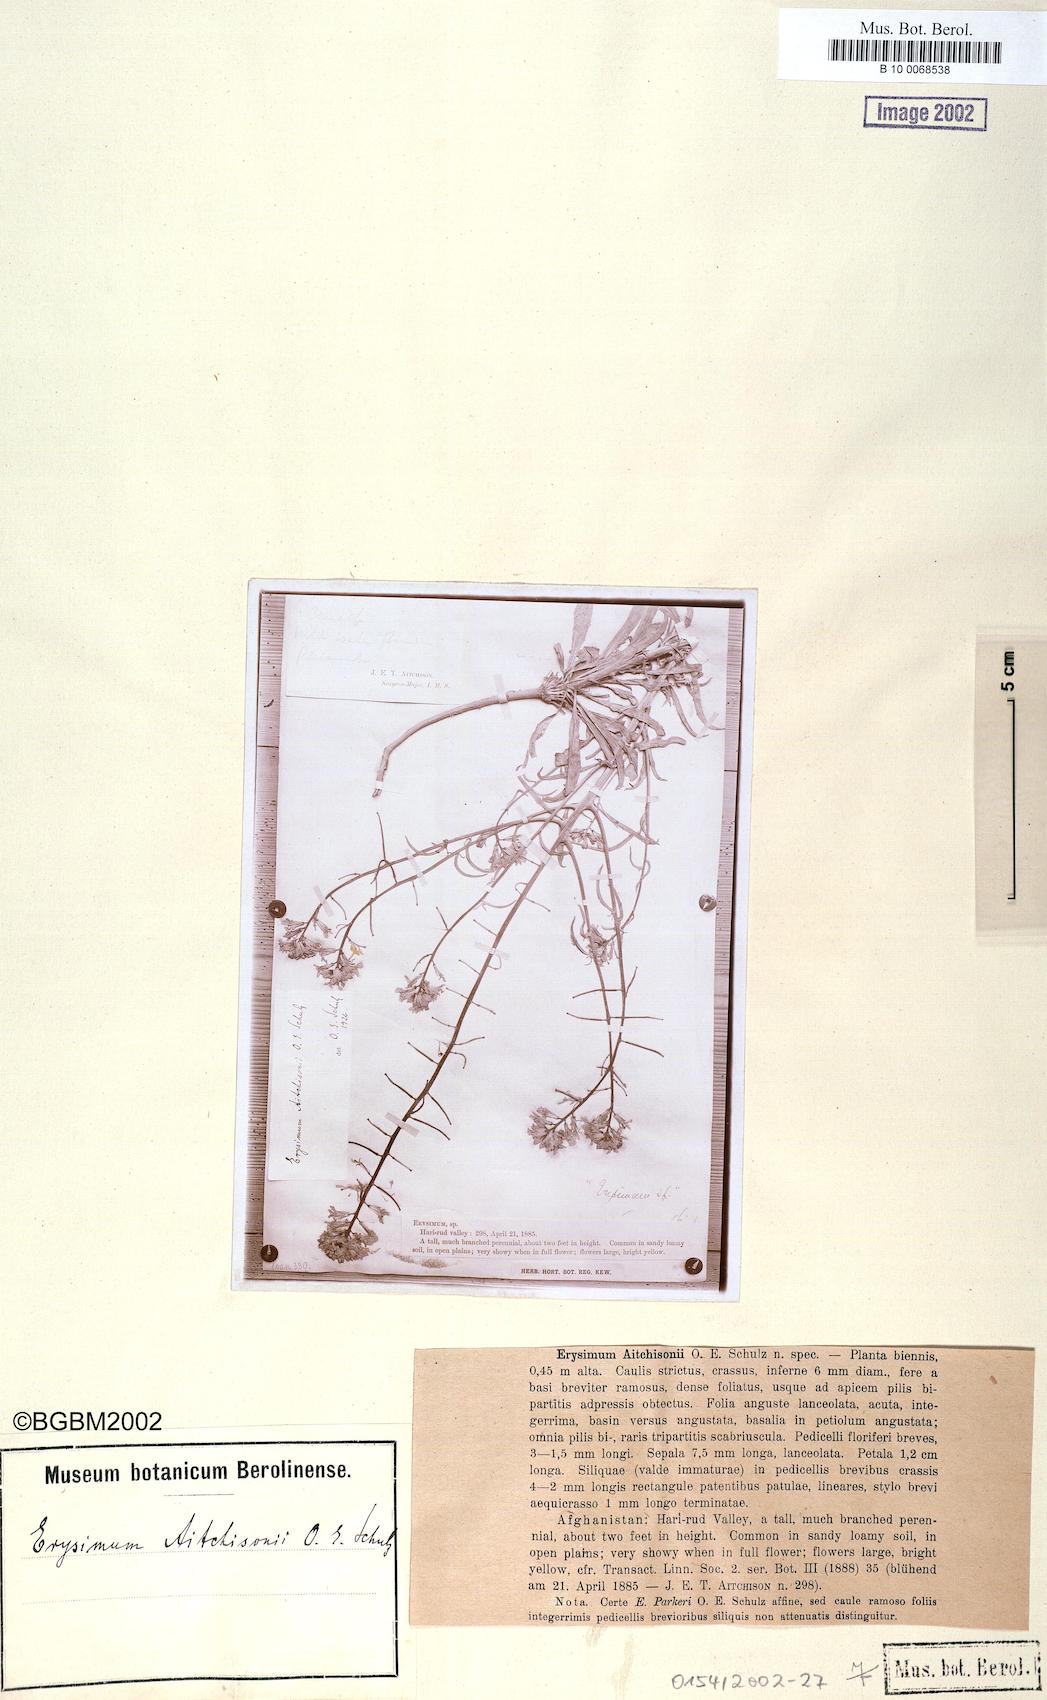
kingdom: Plantae
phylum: Tracheophyta
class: Magnoliopsida
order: Brassicales
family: Brassicaceae
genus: Erysimum
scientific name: Erysimum aitchisonii
